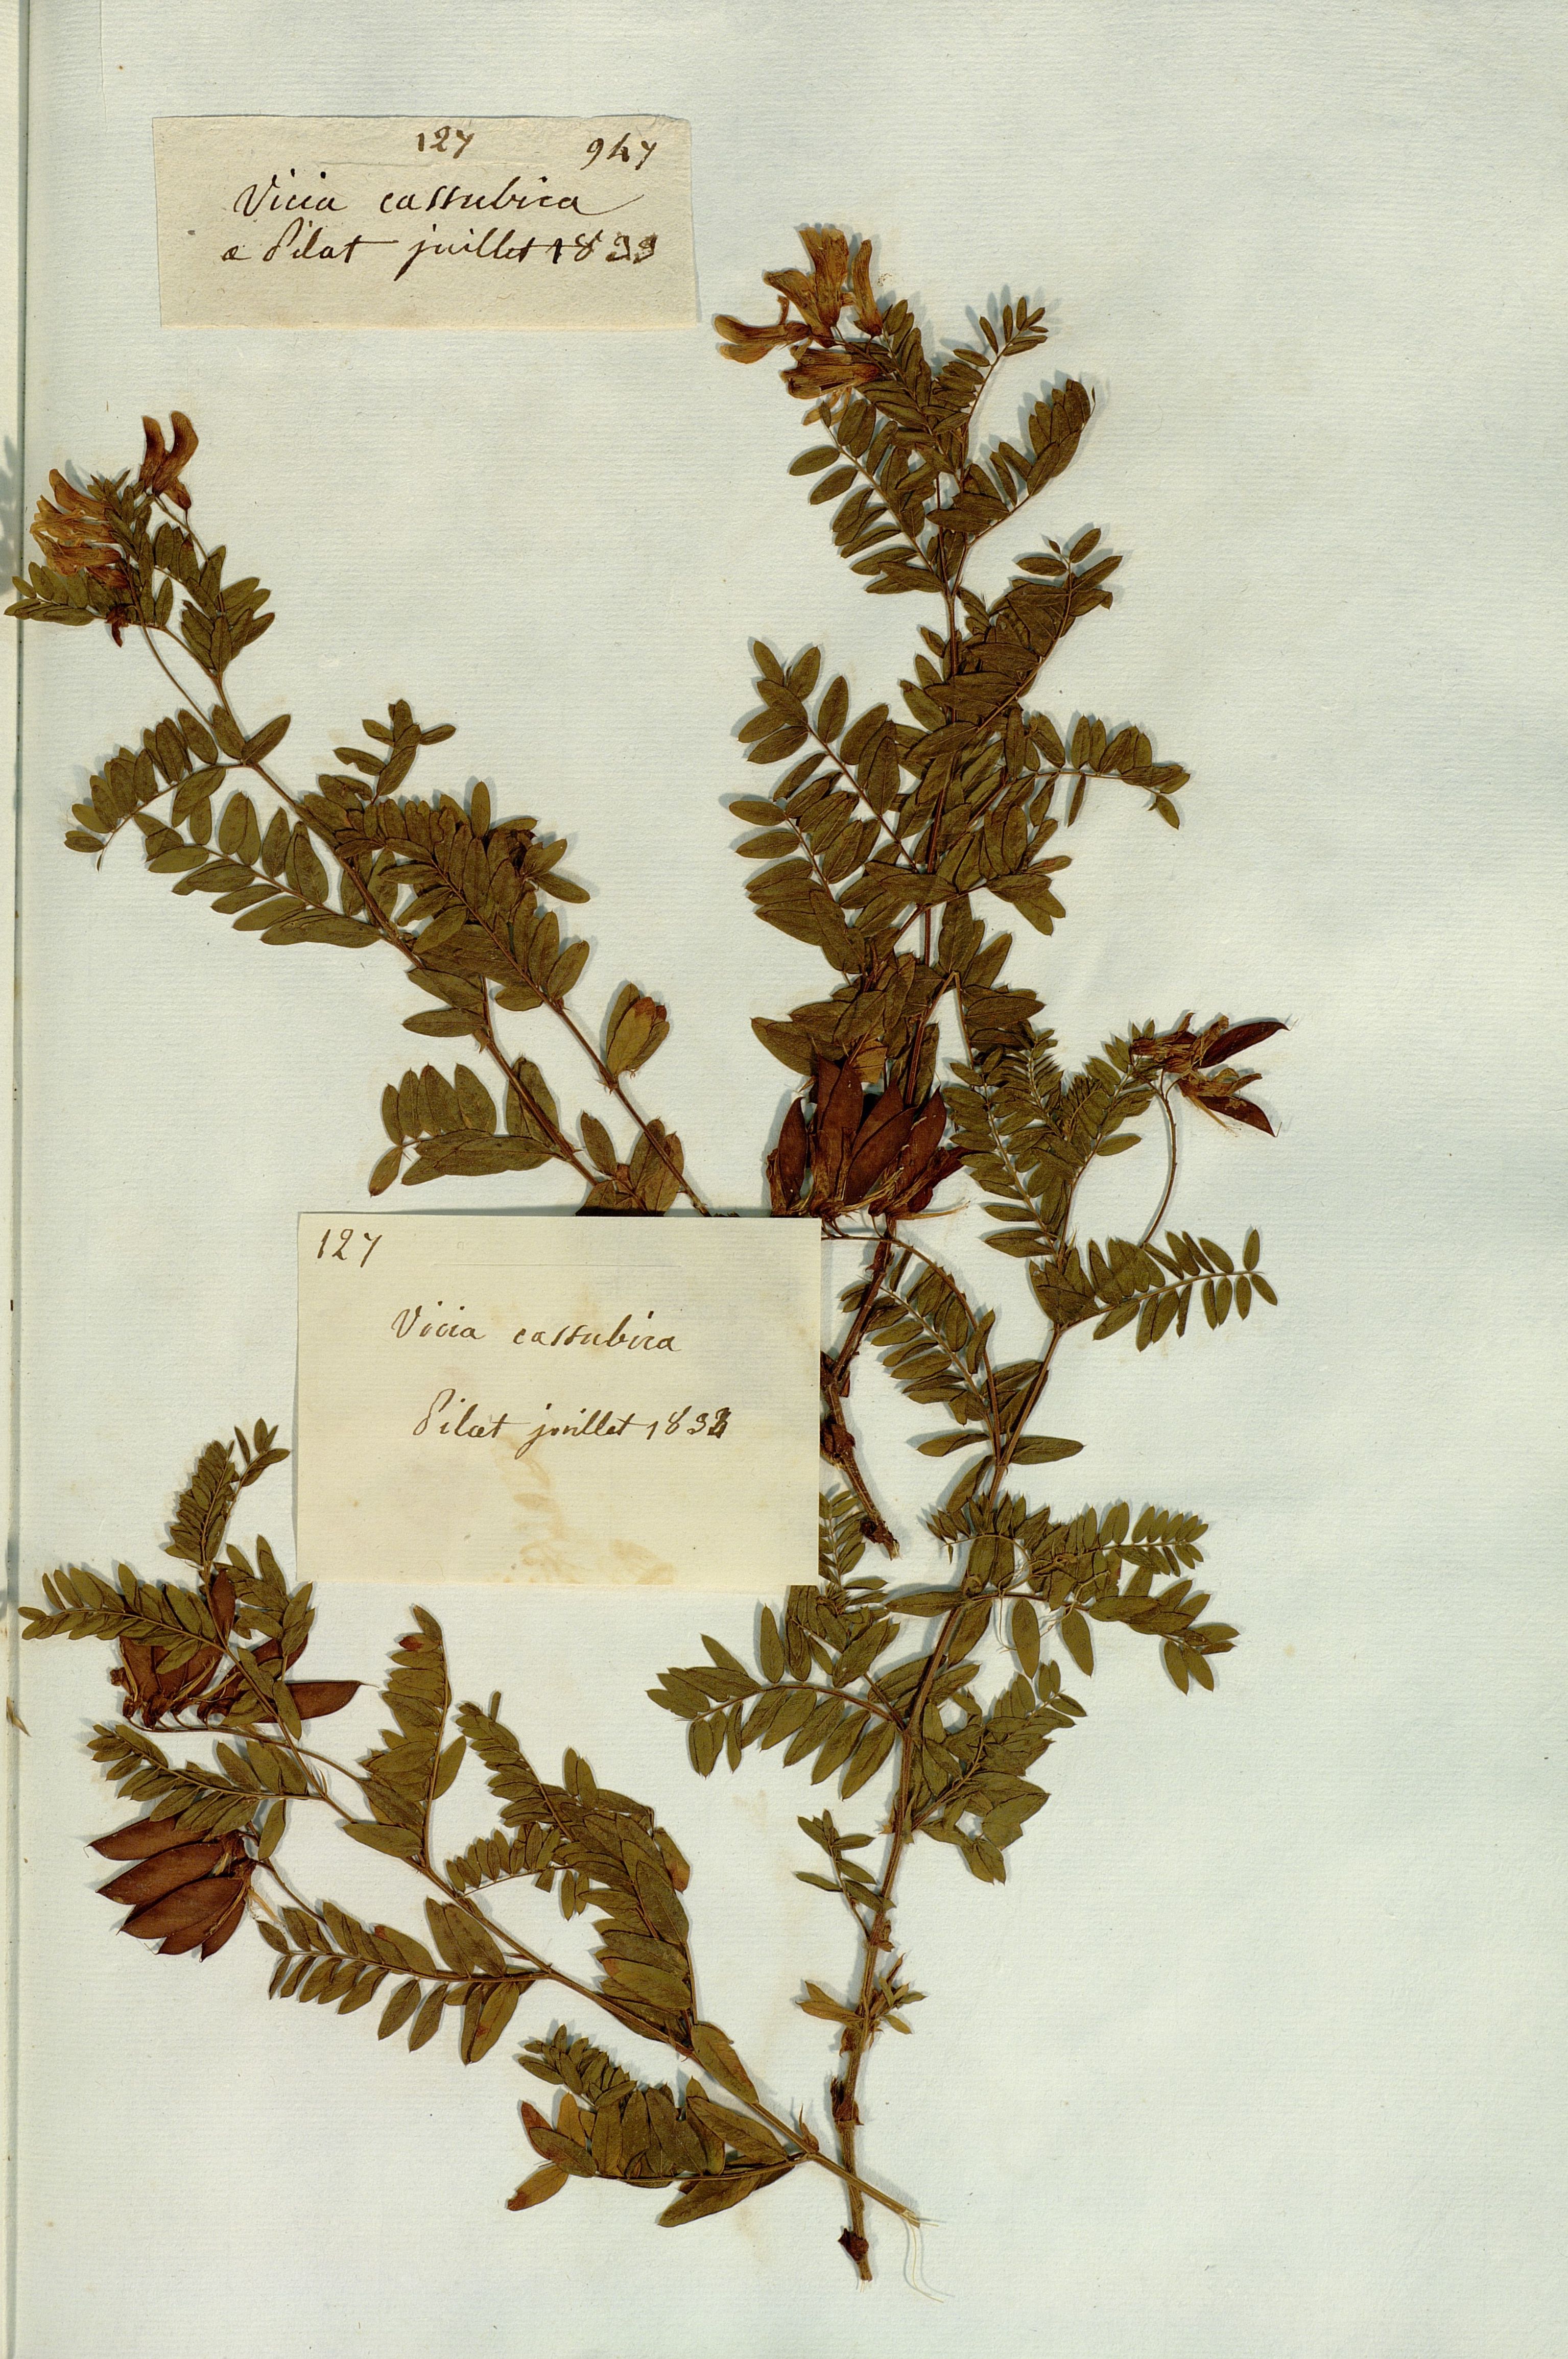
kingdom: Plantae
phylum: Tracheophyta
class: Magnoliopsida
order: Fabales
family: Fabaceae
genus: Vicia
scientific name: Vicia cassubica
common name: Danzig vetch
